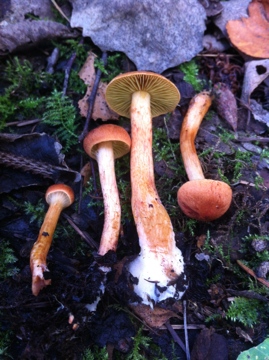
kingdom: Fungi
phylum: Basidiomycota
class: Agaricomycetes
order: Agaricales
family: Cortinariaceae
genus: Cortinarius
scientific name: Cortinarius uliginosus
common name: mose-slørhat
